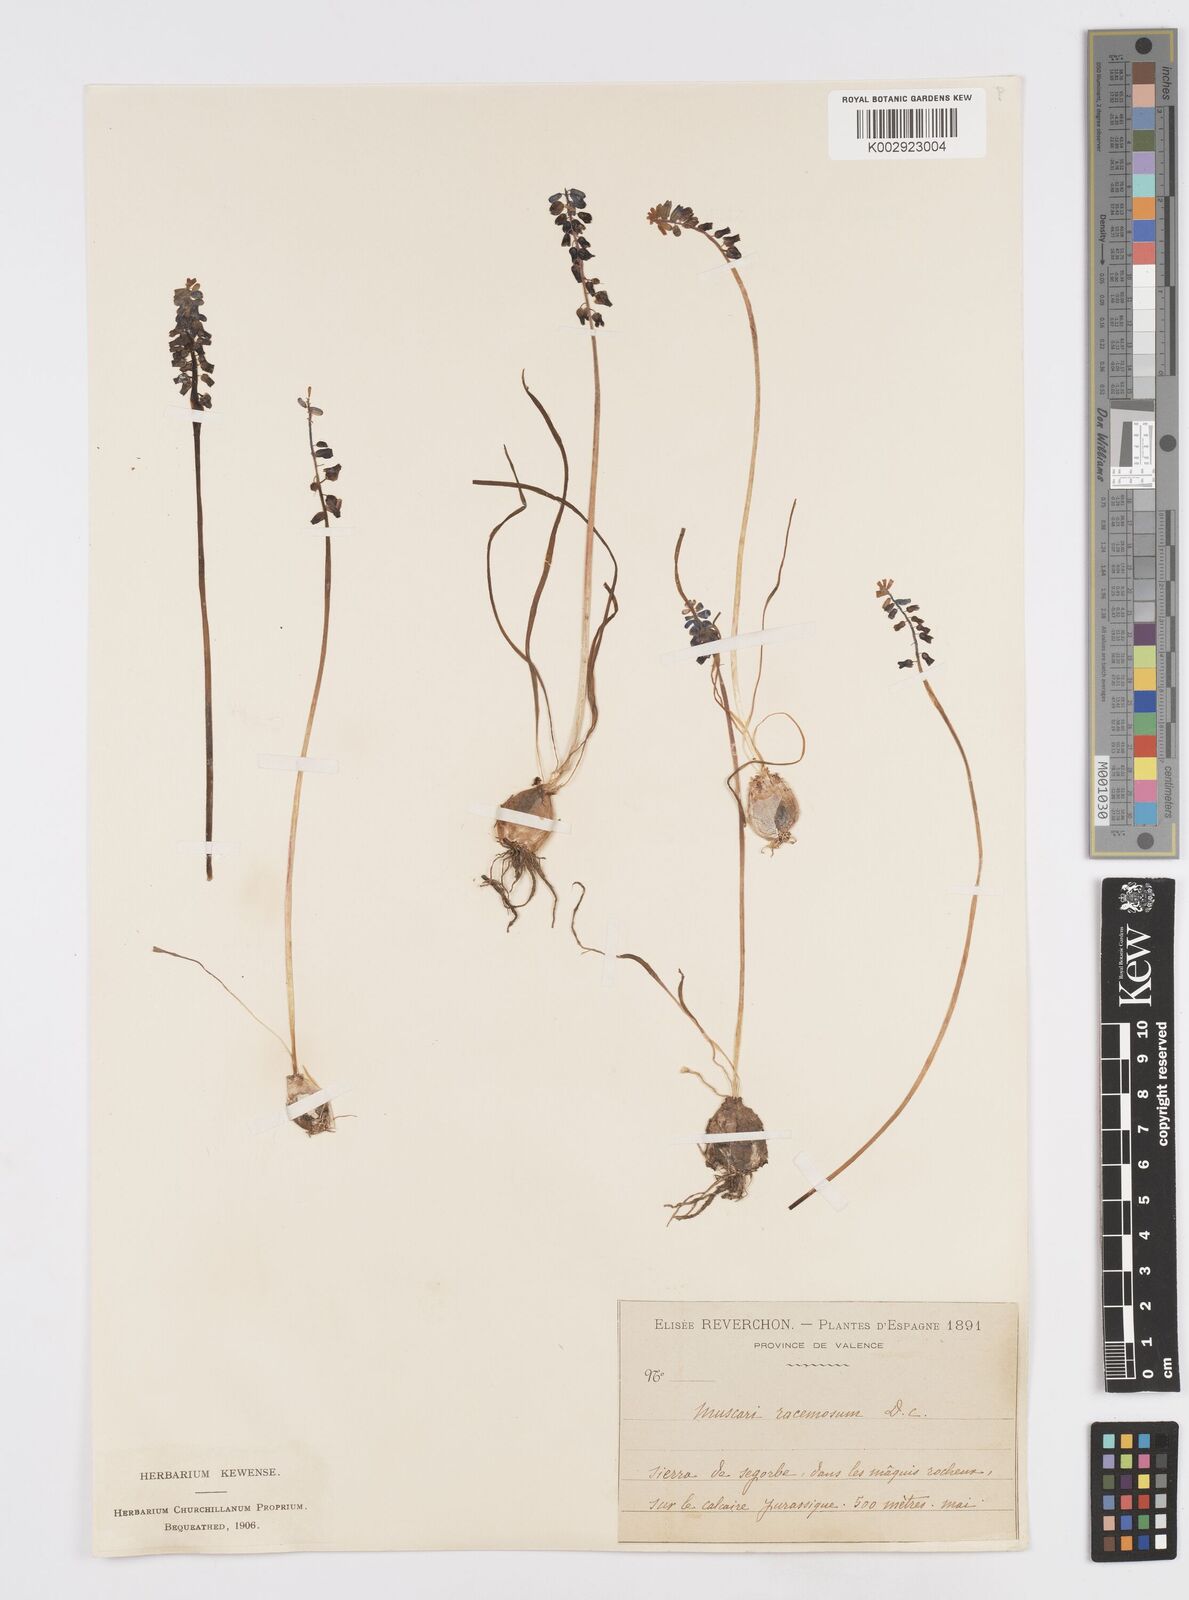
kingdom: Plantae
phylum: Tracheophyta
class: Liliopsida
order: Asparagales
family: Asparagaceae
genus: Muscarimia
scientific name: Muscarimia muscari
